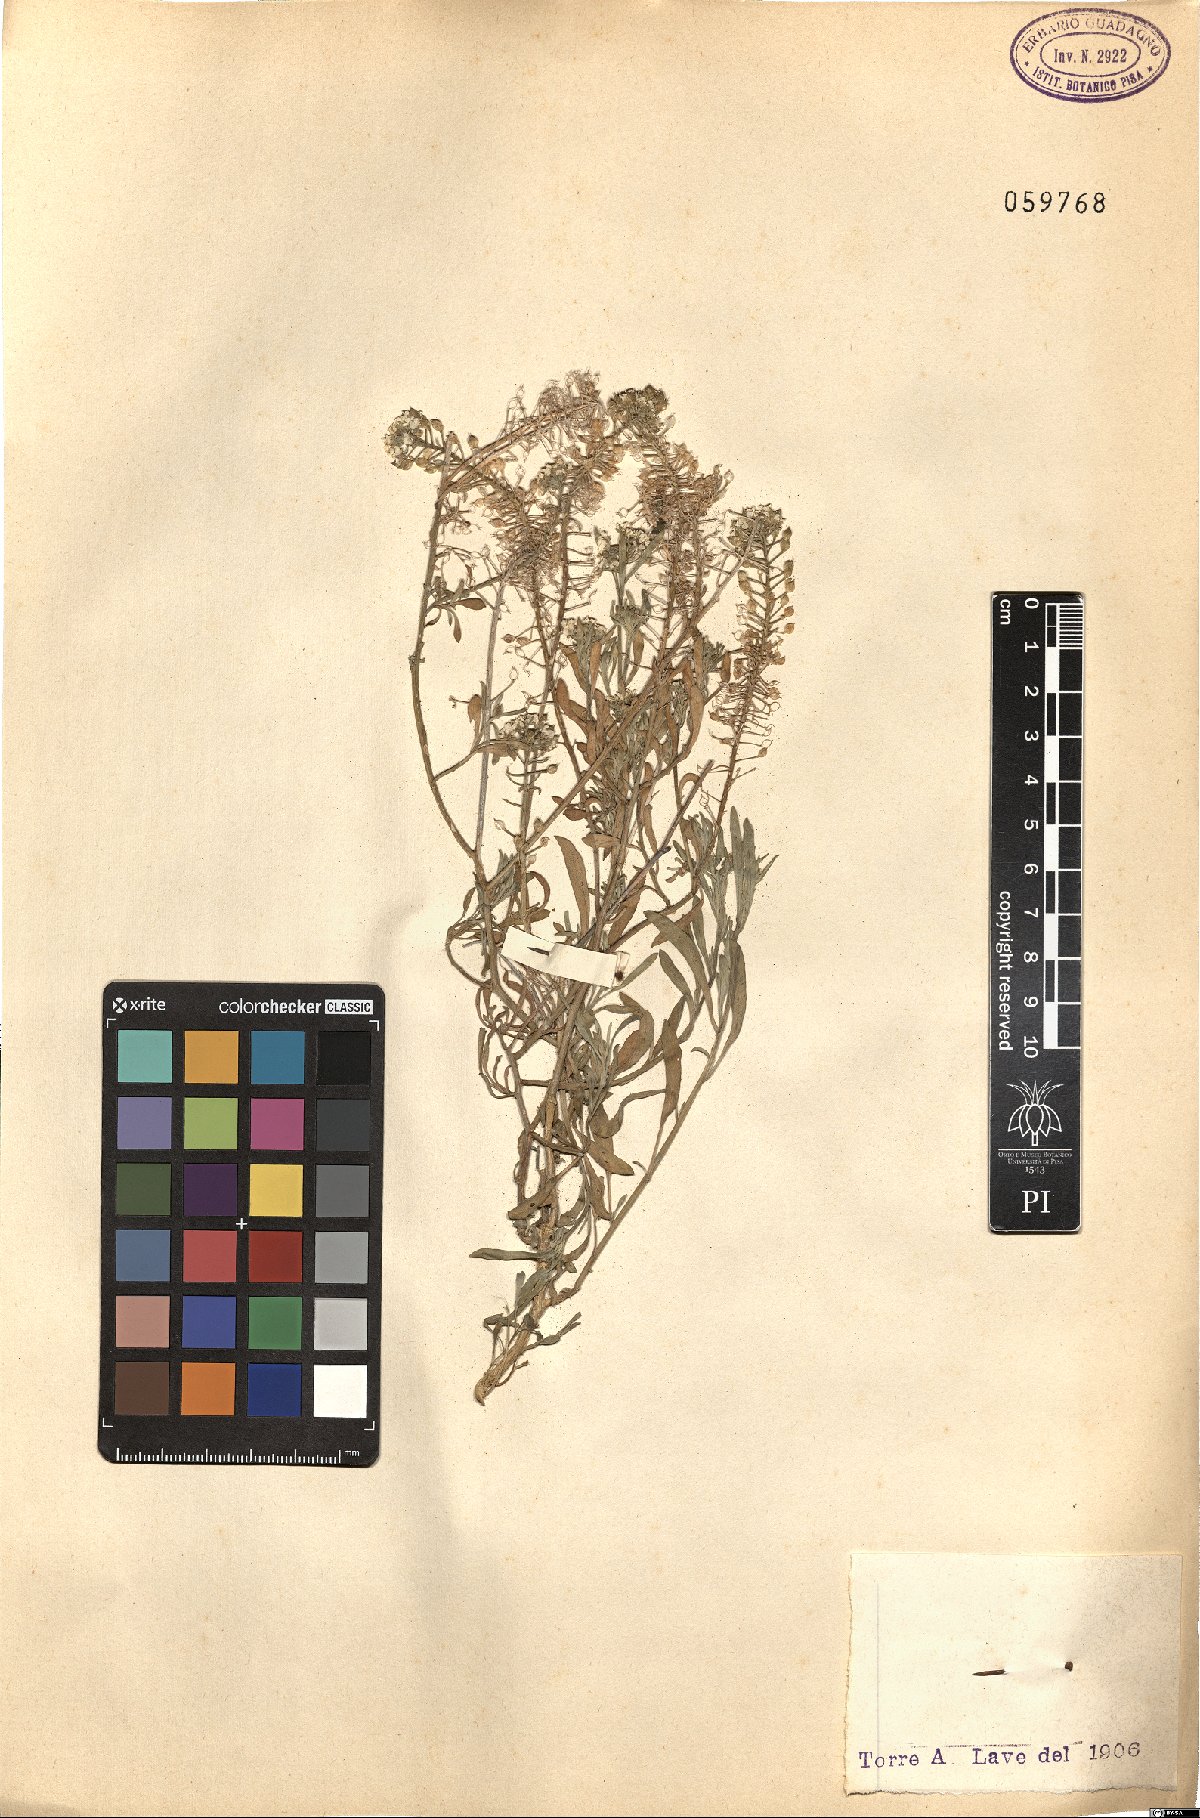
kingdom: Plantae
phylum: Tracheophyta
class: Magnoliopsida
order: Brassicales
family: Brassicaceae
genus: Lepidium
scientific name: Lepidium
